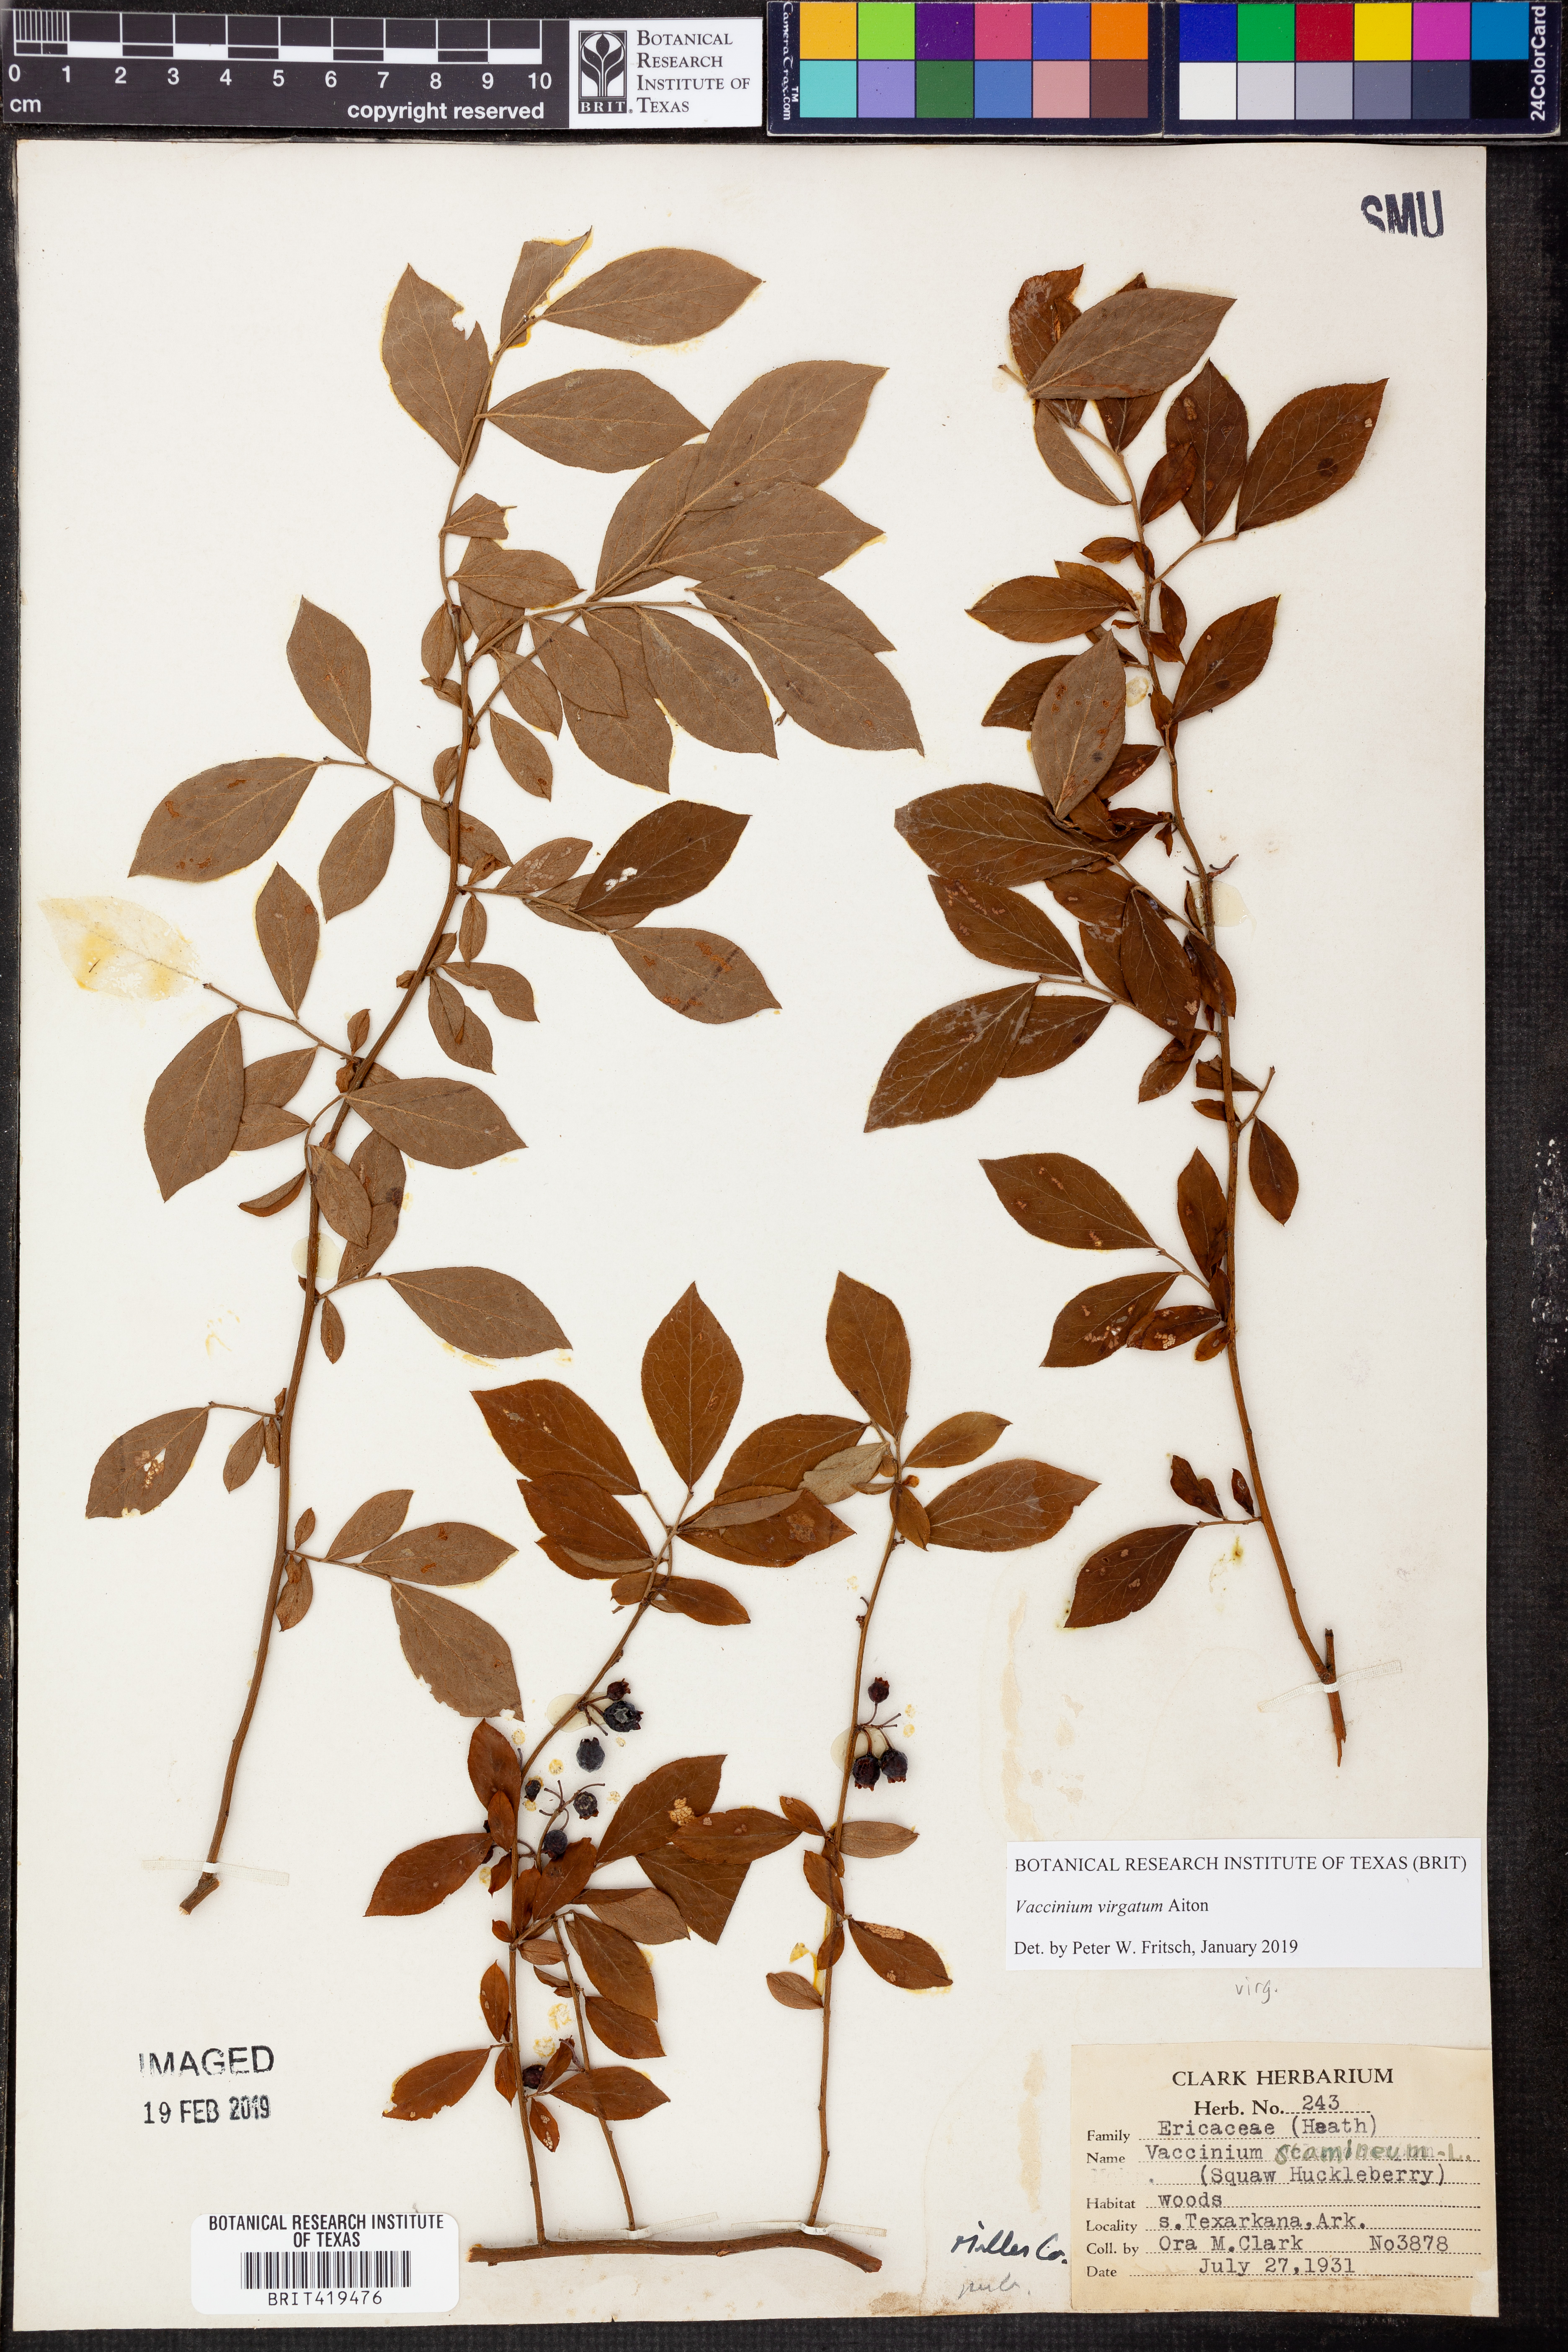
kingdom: Plantae
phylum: Tracheophyta
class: Magnoliopsida
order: Ericales
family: Ericaceae
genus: Vaccinium
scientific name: Vaccinium corymbosum
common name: Blueberry
